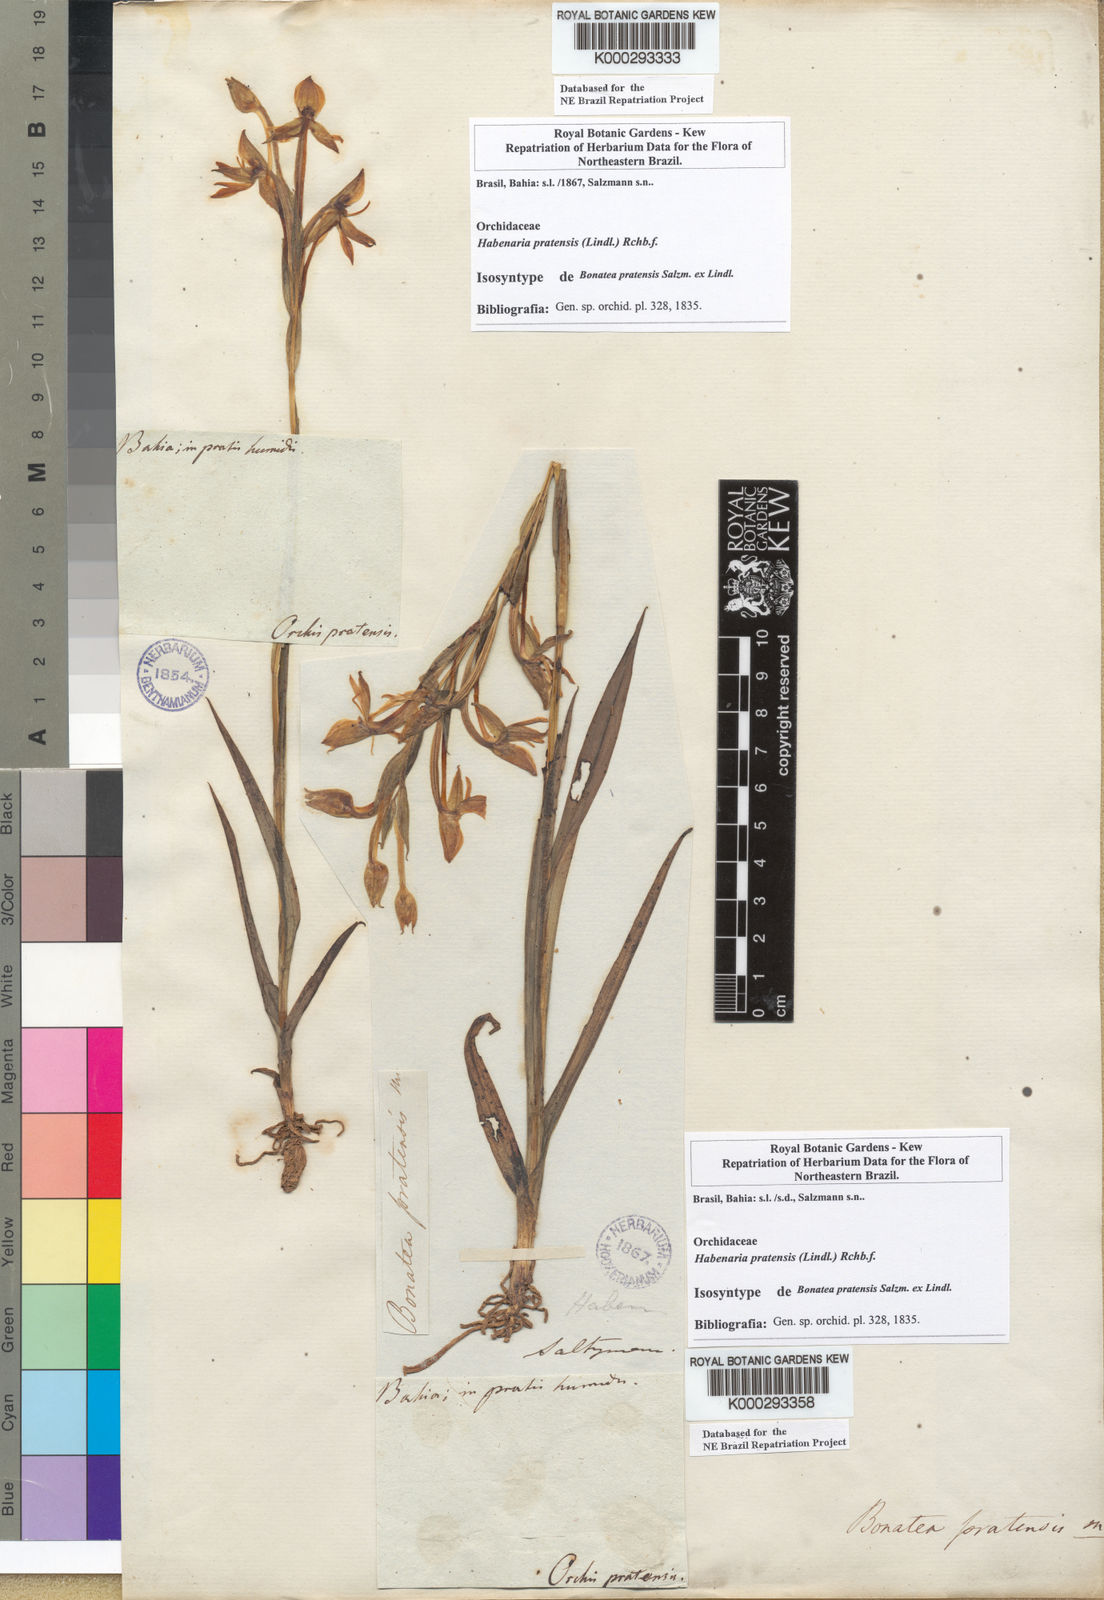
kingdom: Plantae
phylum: Tracheophyta
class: Liliopsida
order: Asparagales
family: Orchidaceae
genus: Habenaria
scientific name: Habenaria pratensis
